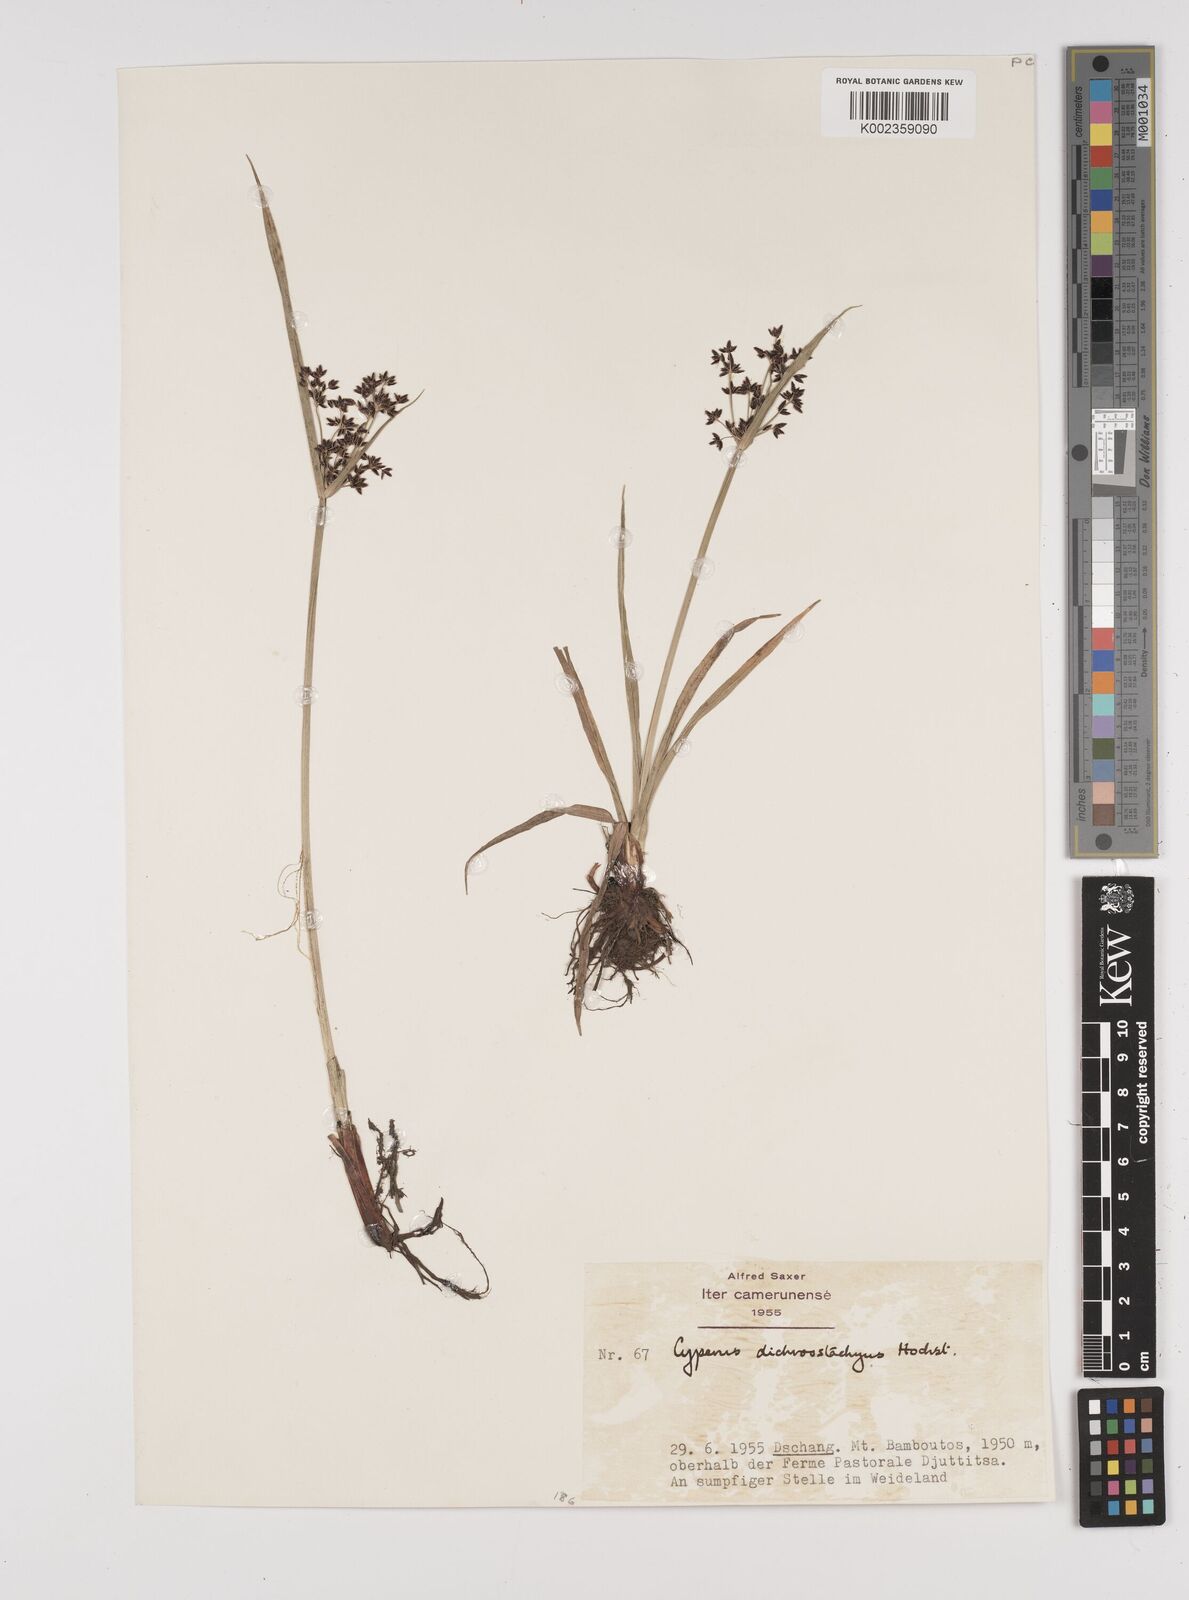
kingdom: Plantae
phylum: Tracheophyta
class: Liliopsida
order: Poales
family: Cyperaceae
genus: Cyperus
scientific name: Cyperus dichrostachyus
